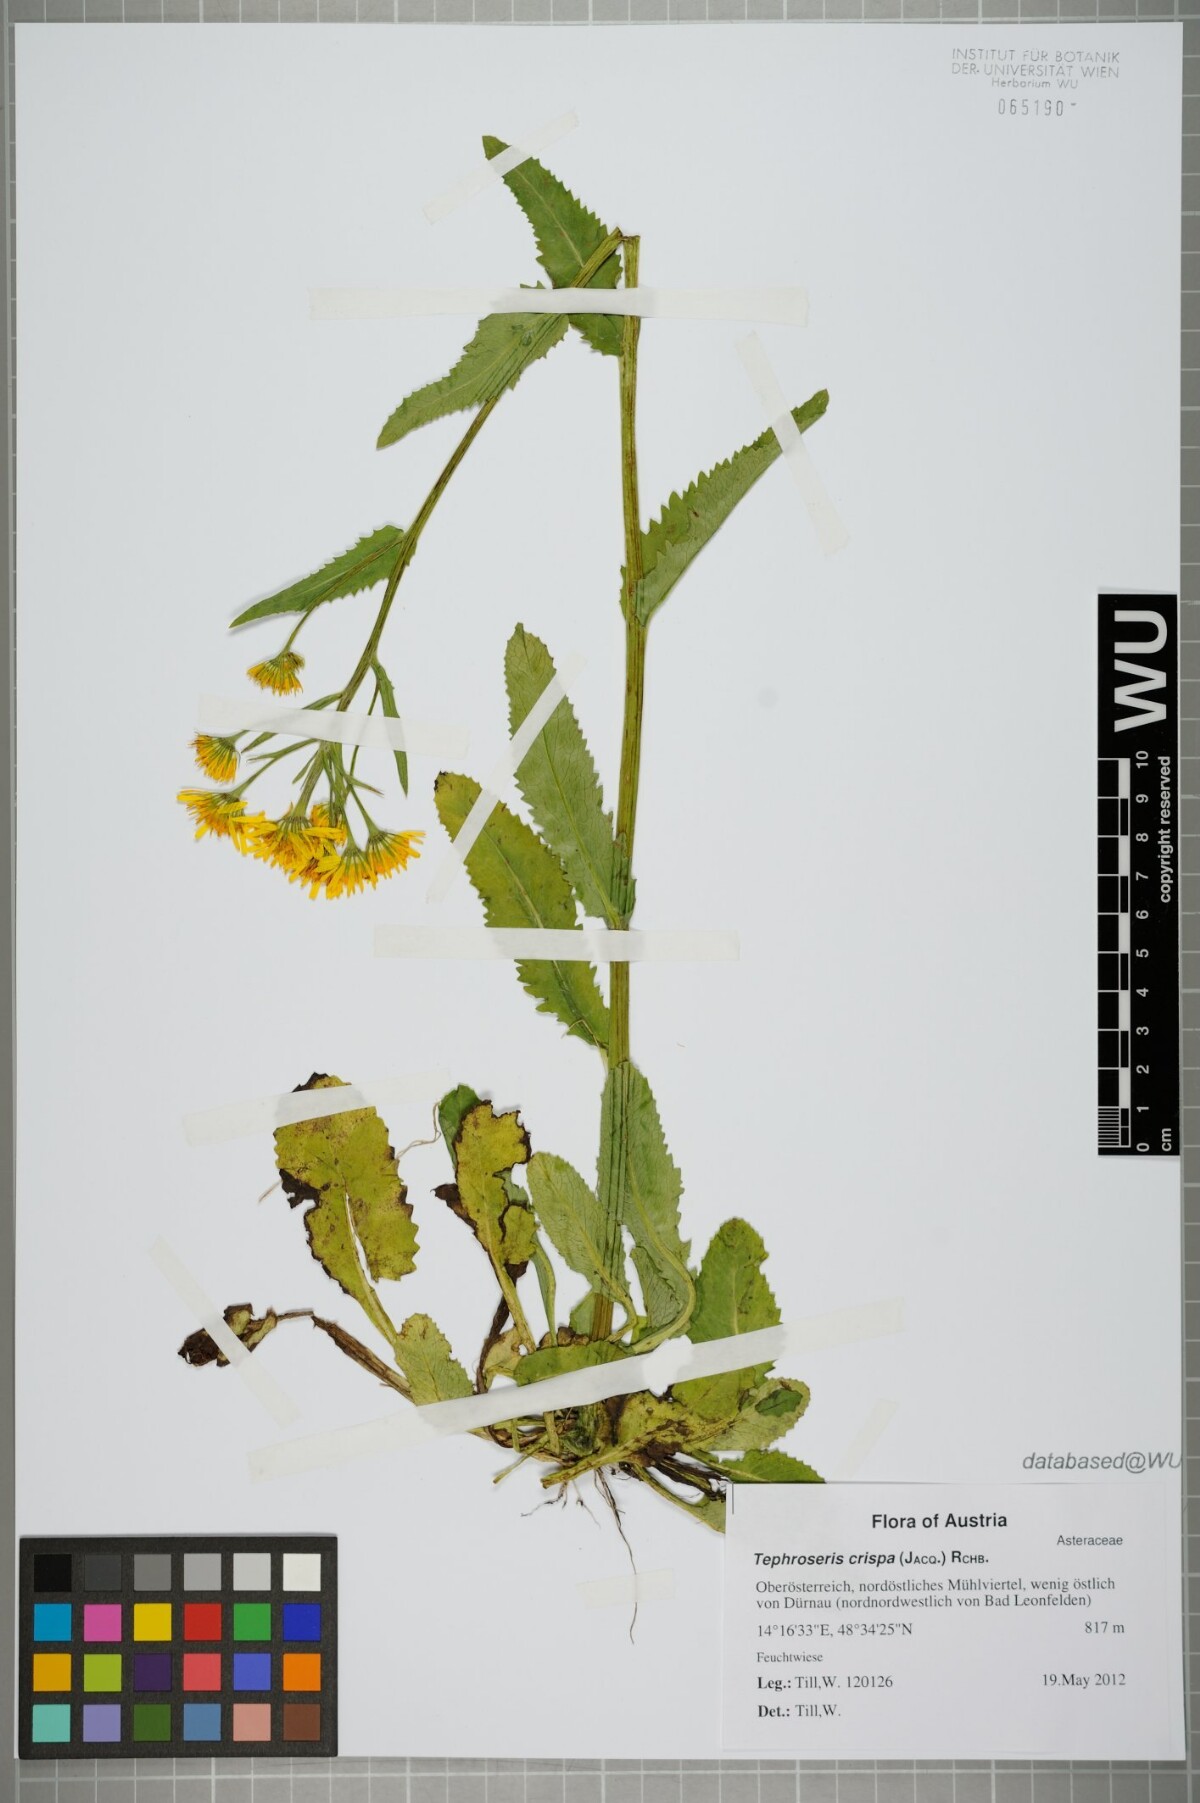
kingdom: Plantae
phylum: Tracheophyta
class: Magnoliopsida
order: Asterales
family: Asteraceae
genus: Tephroseris
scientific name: Tephroseris crispa
